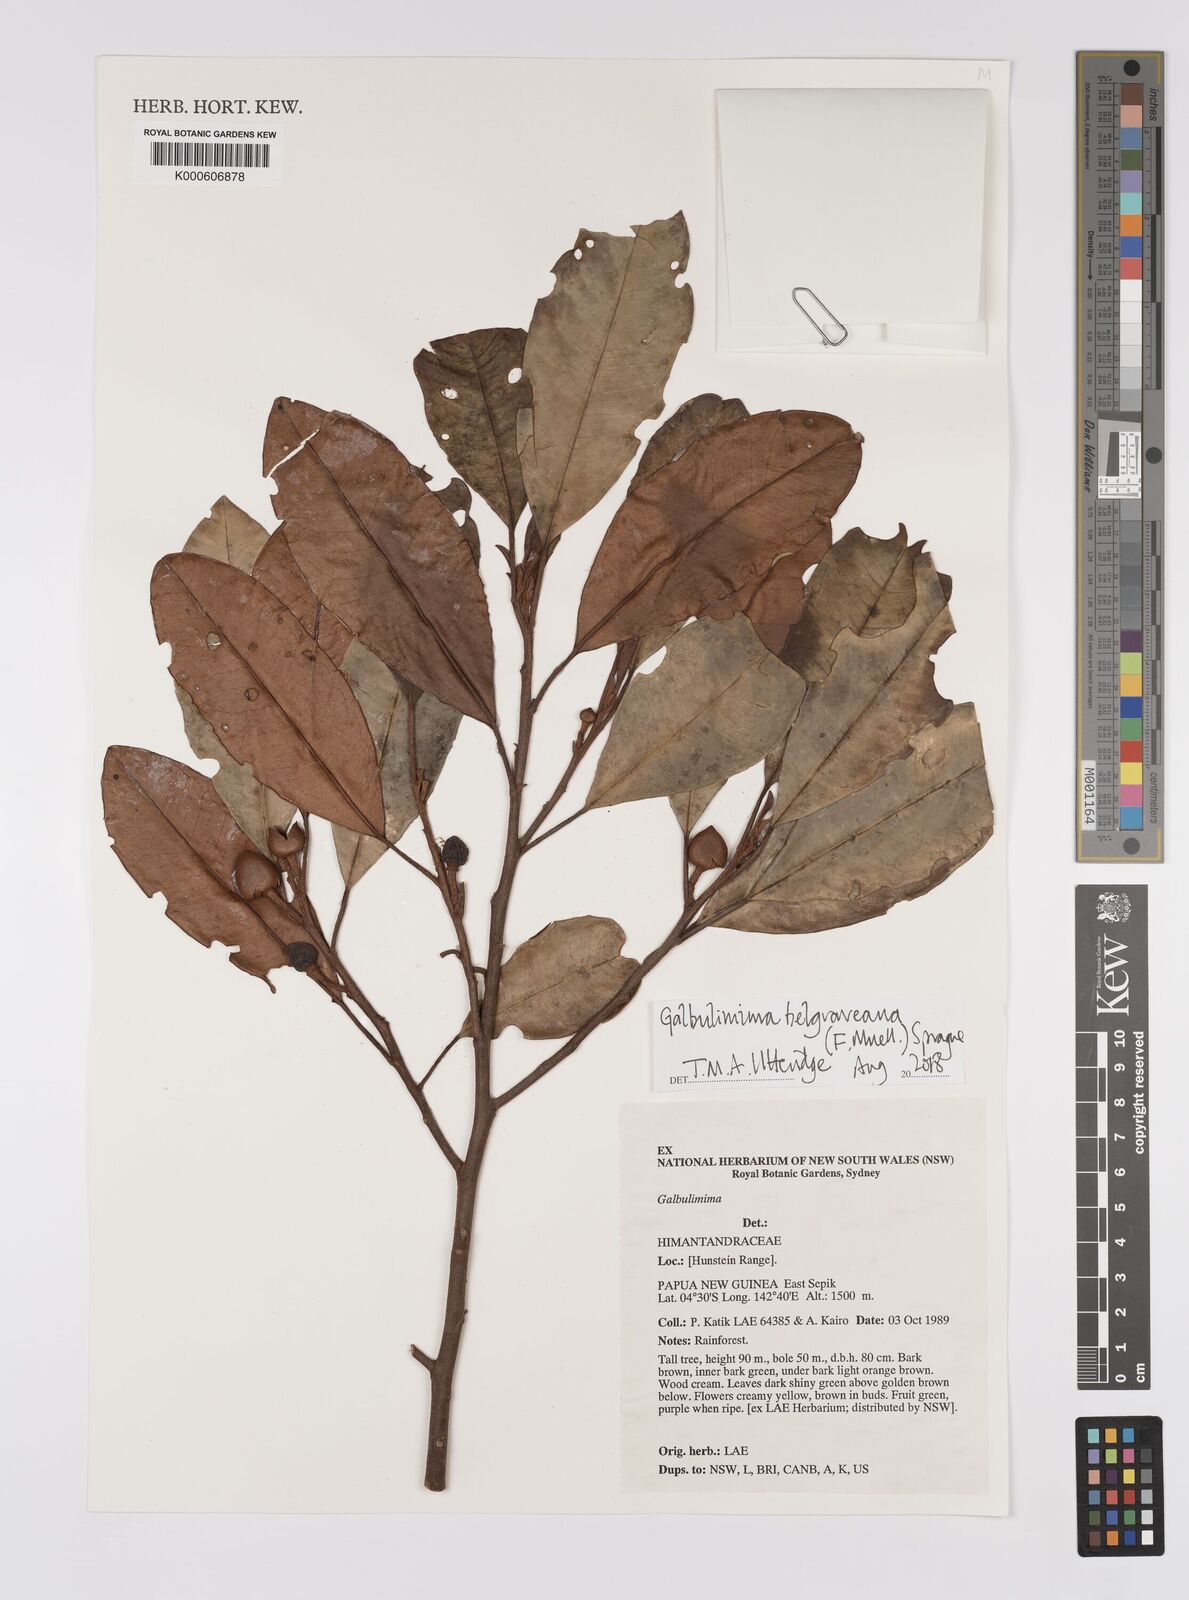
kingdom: Plantae
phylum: Tracheophyta
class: Magnoliopsida
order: Magnoliales
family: Himantandraceae
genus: Galbulimima
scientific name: Galbulimima belgraveana
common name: Northern pigeonberry-ash
